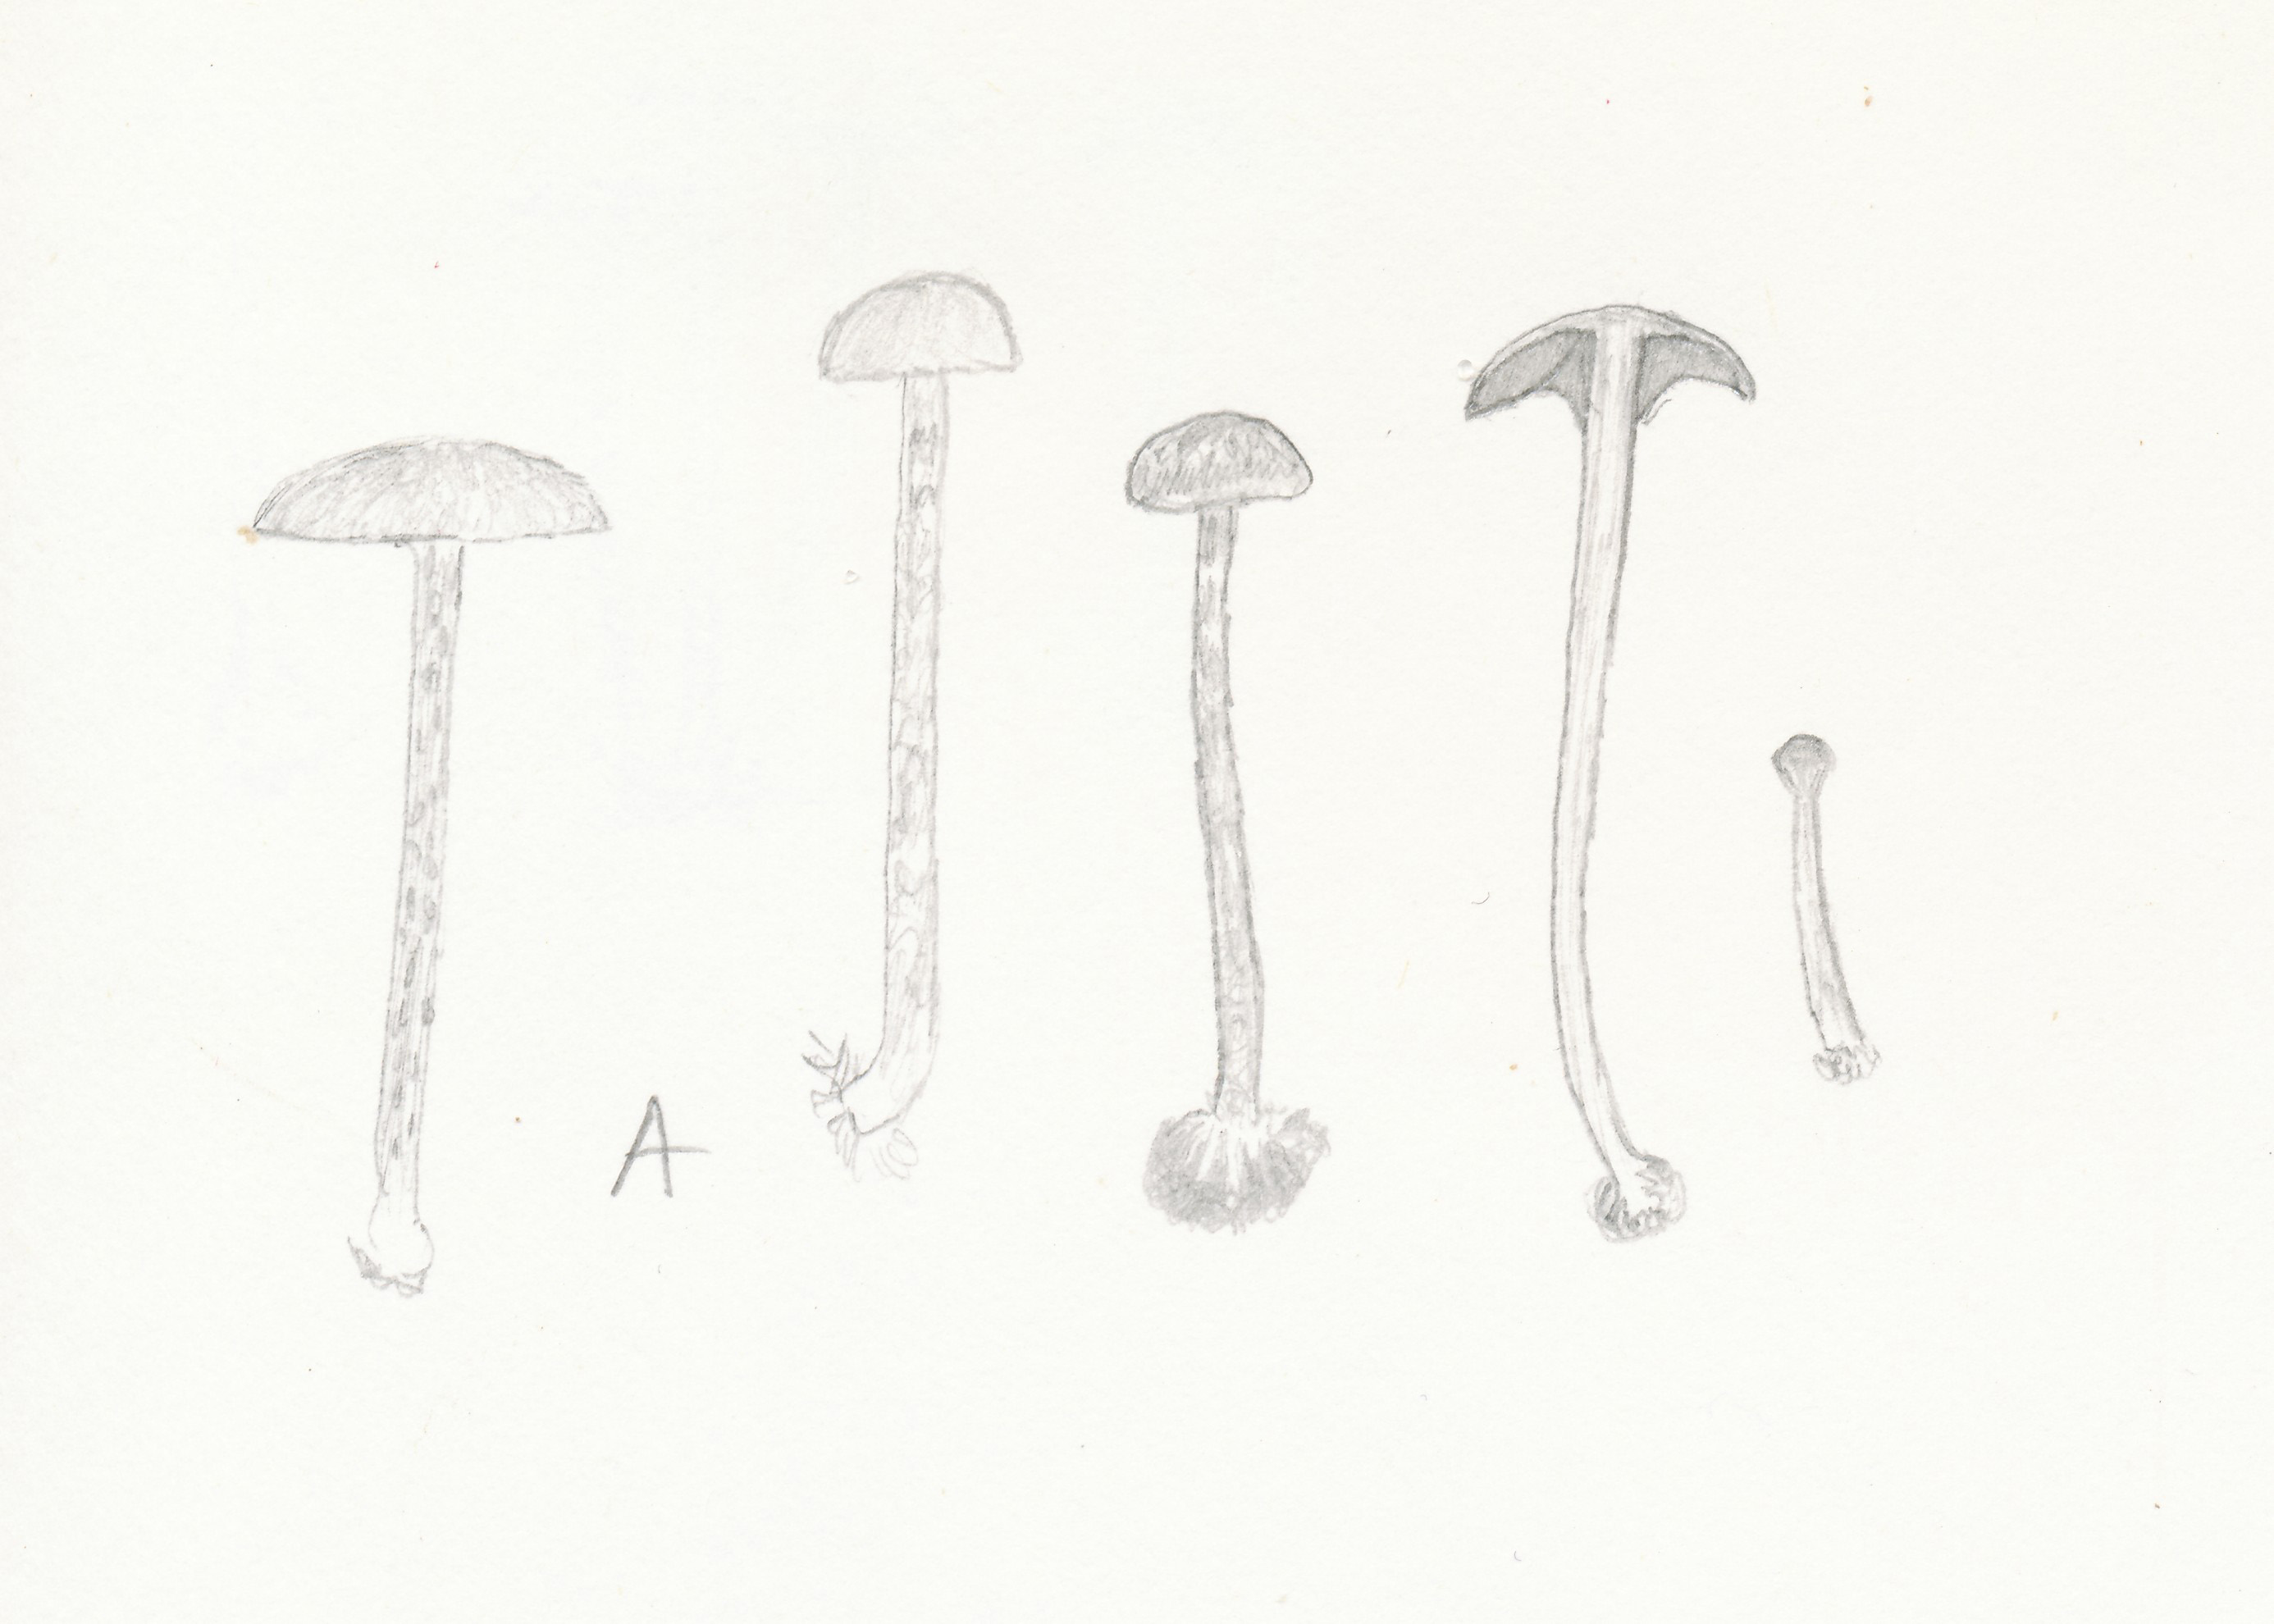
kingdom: Fungi
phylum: Basidiomycota
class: Agaricomycetes
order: Agaricales
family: Tubariaceae
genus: Flammulaster
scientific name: Flammulaster carpophilus
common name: blegrosa grynskælhat
